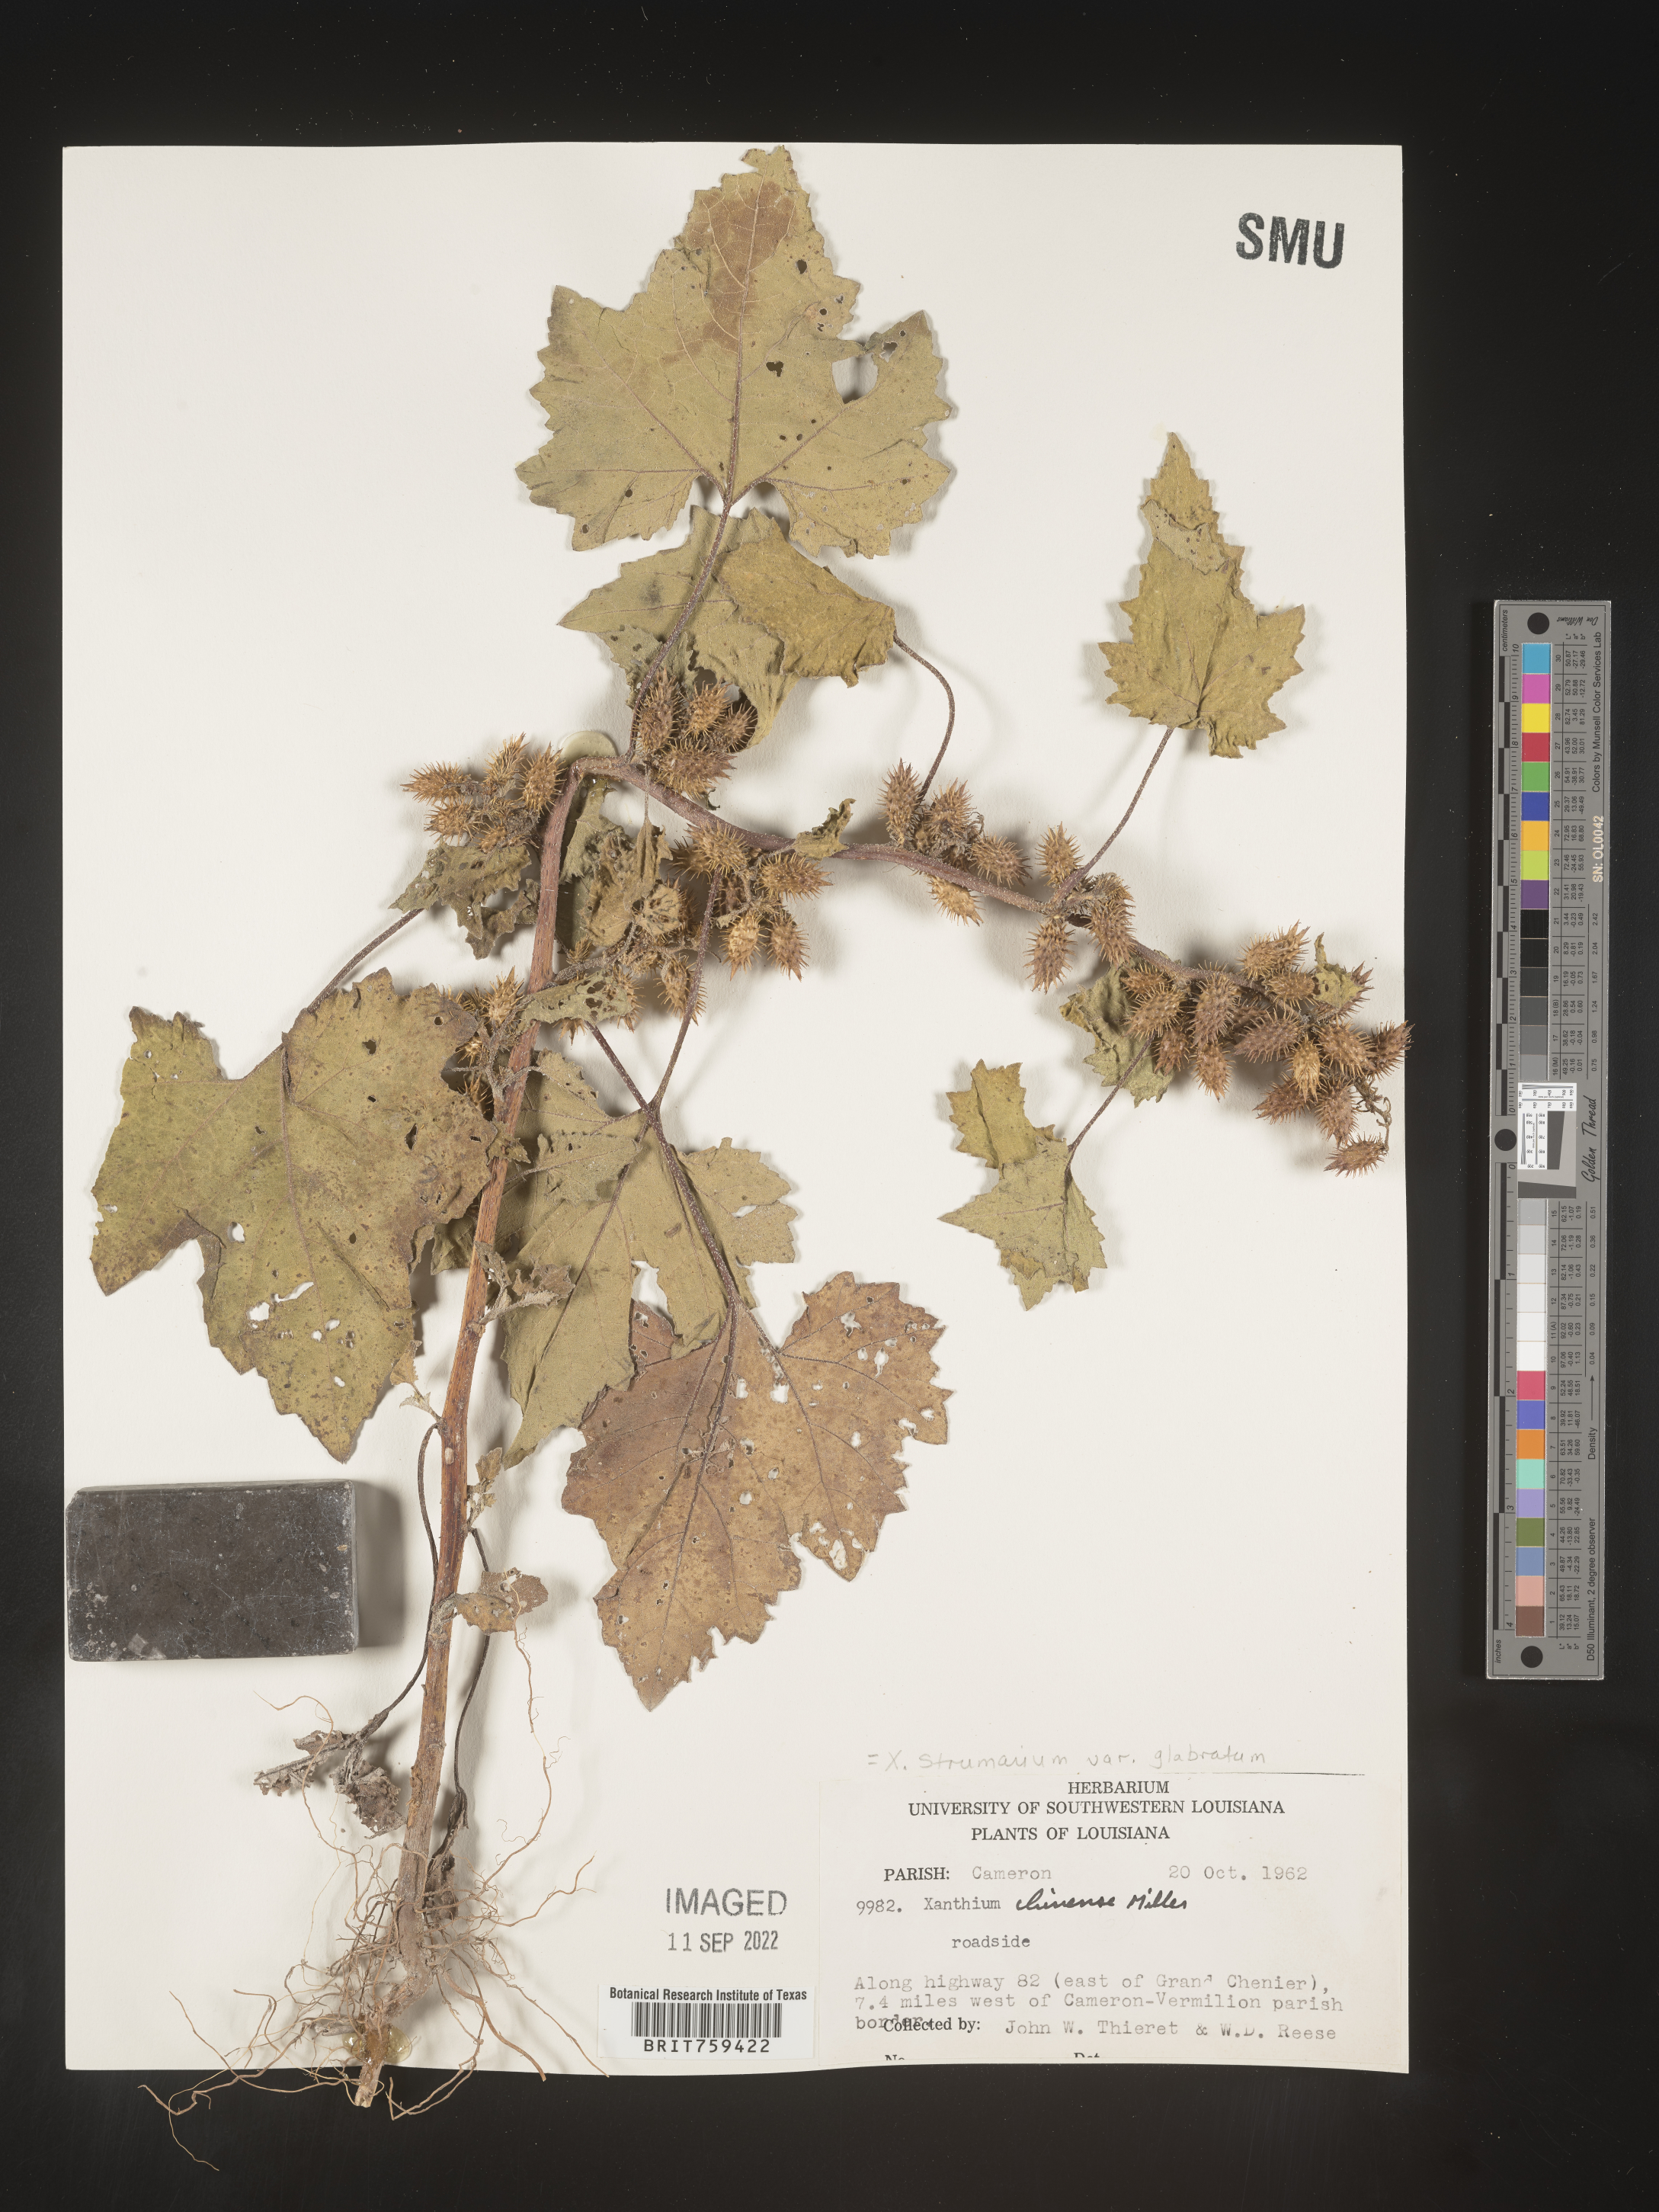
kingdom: Plantae
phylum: Tracheophyta
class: Magnoliopsida
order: Asterales
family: Asteraceae
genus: Xanthium
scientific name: Xanthium occidentale
